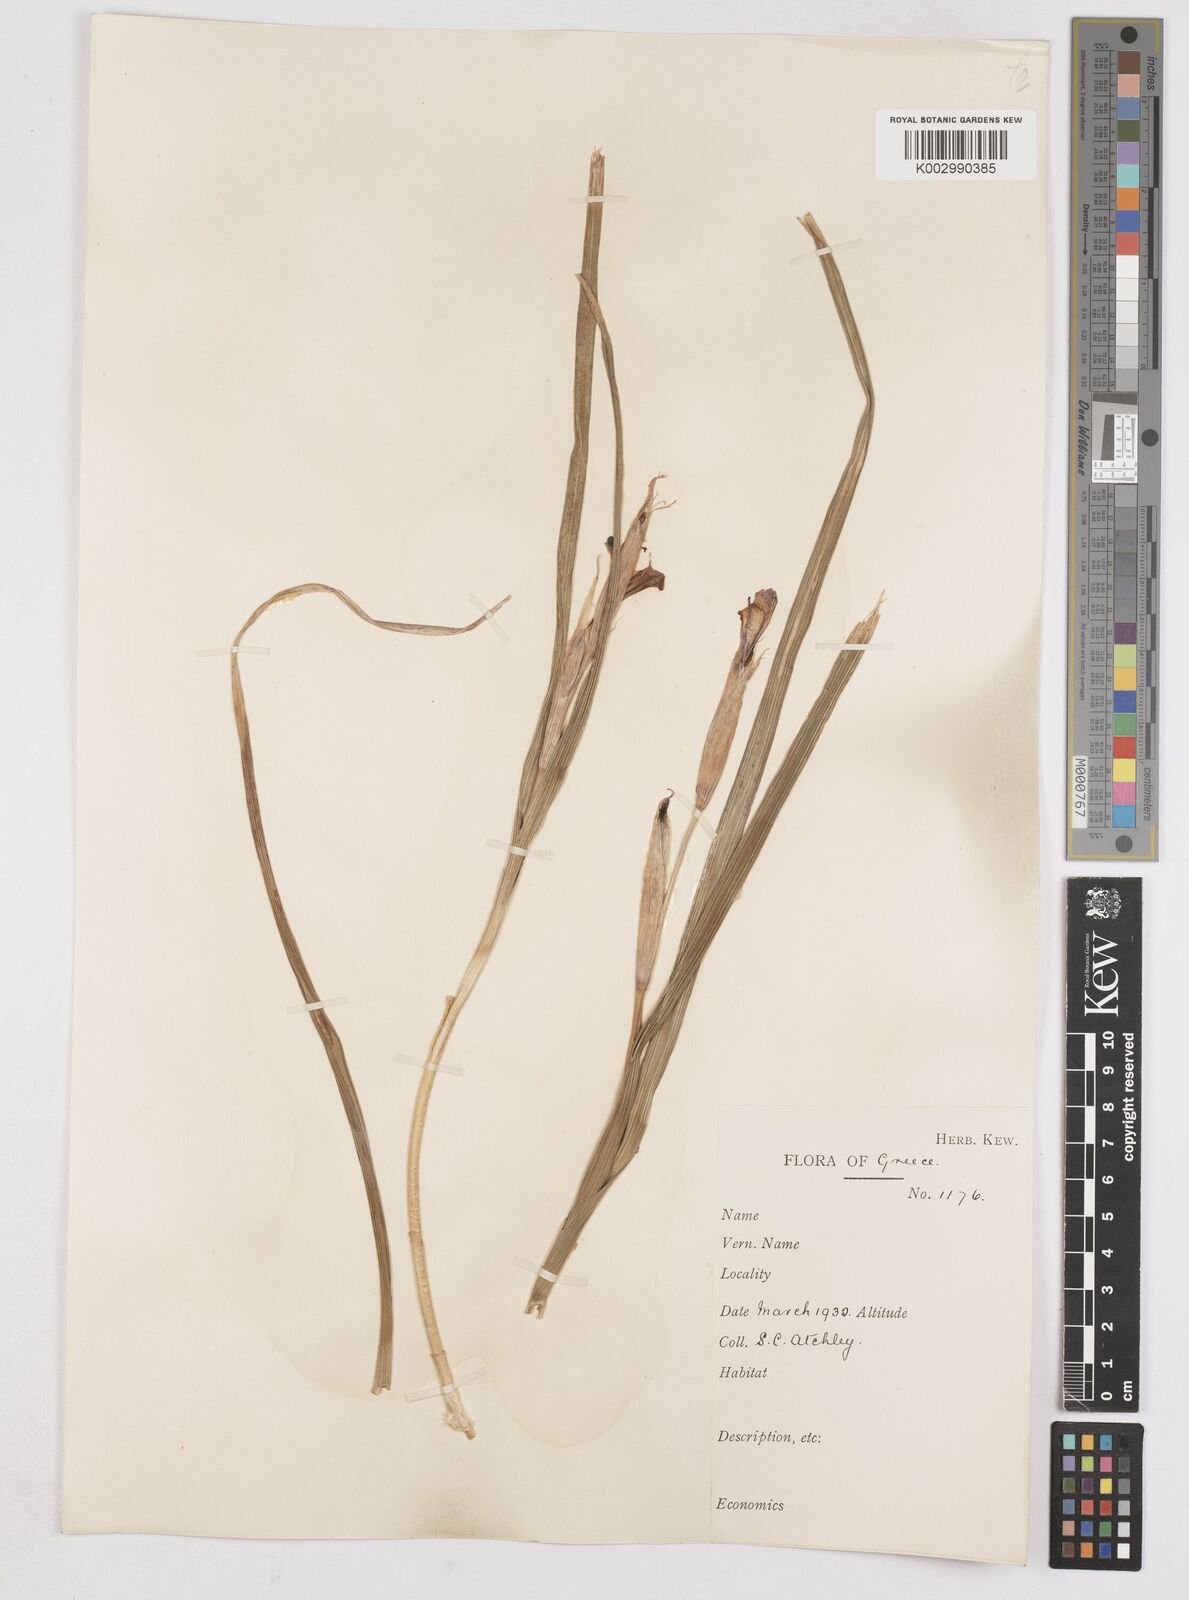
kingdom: Plantae
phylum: Tracheophyta
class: Liliopsida
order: Asparagales
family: Iridaceae
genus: Moraea
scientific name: Moraea sisyrinchium
